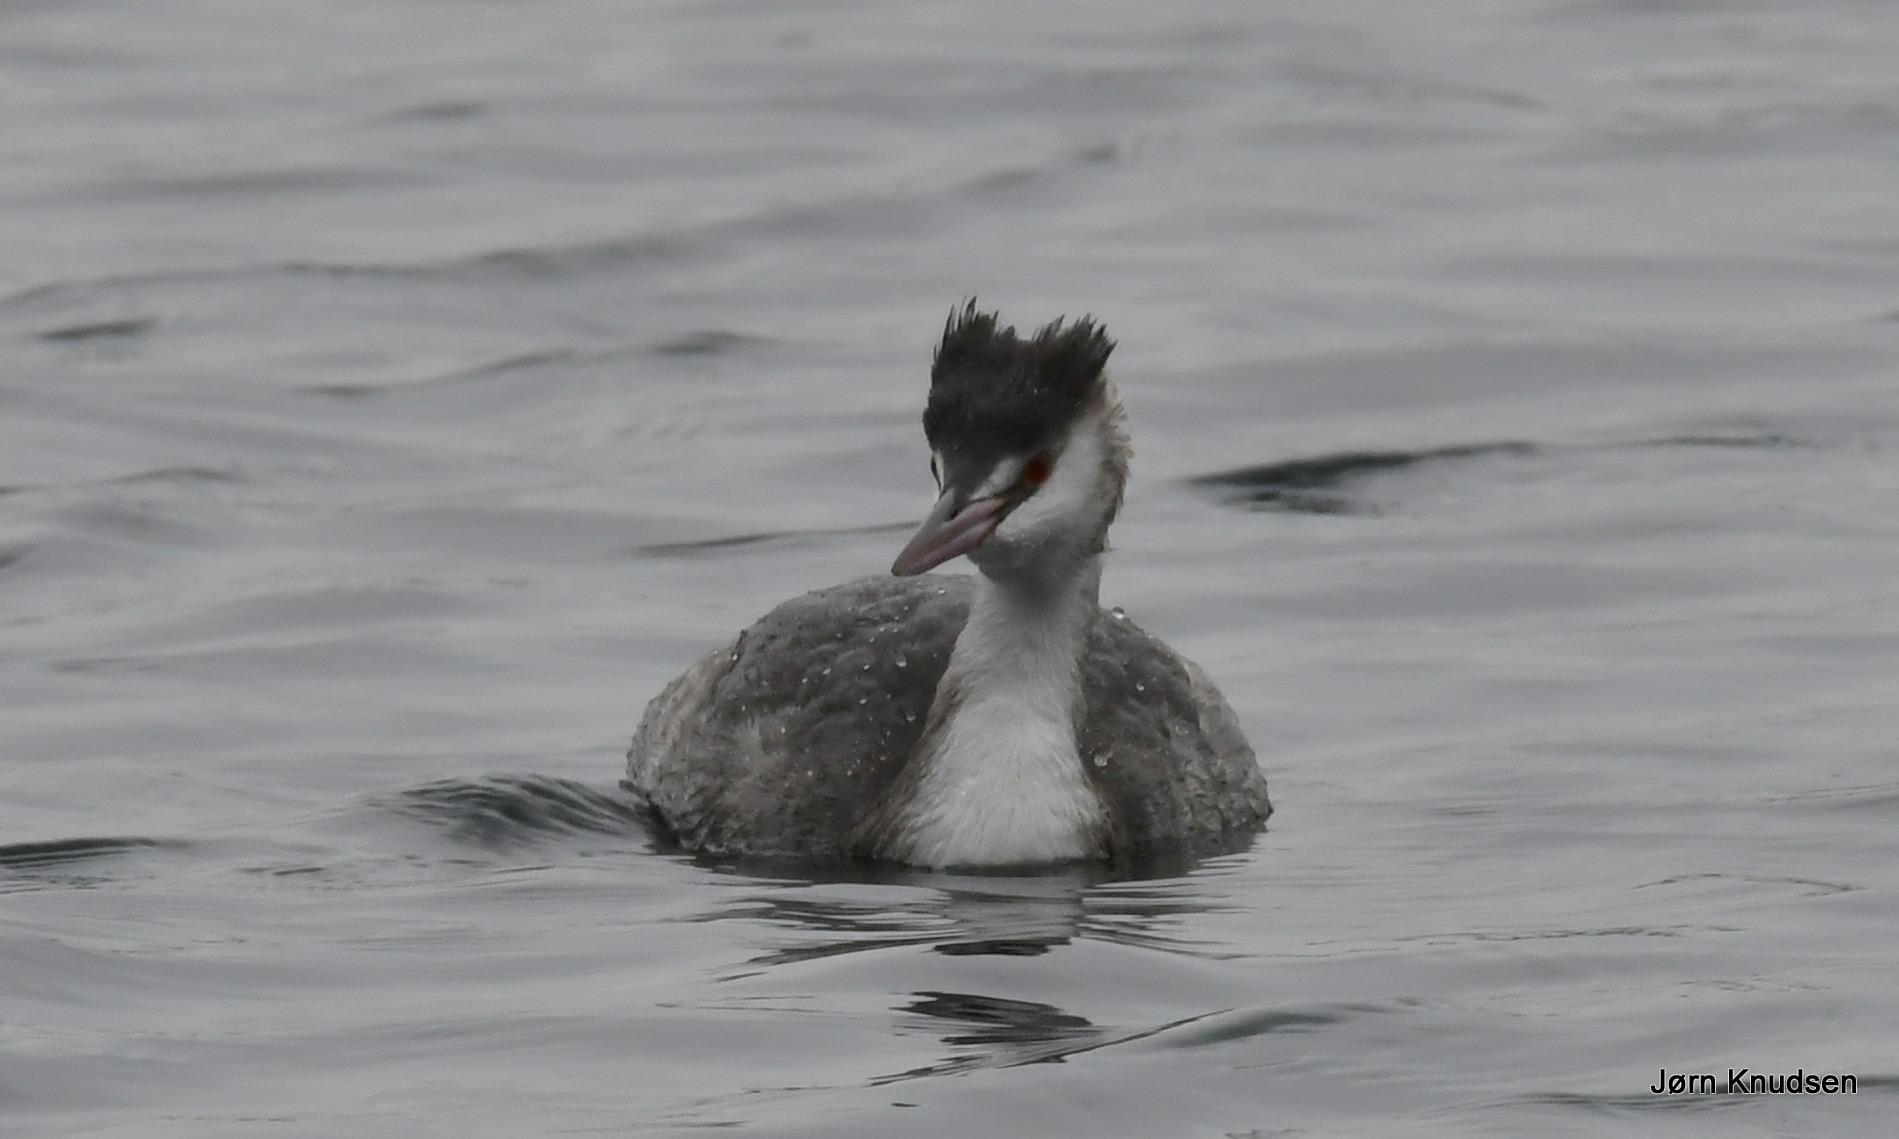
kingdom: Animalia
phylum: Chordata
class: Aves
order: Podicipediformes
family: Podicipedidae
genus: Podiceps
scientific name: Podiceps cristatus
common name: Toppet lappedykker
